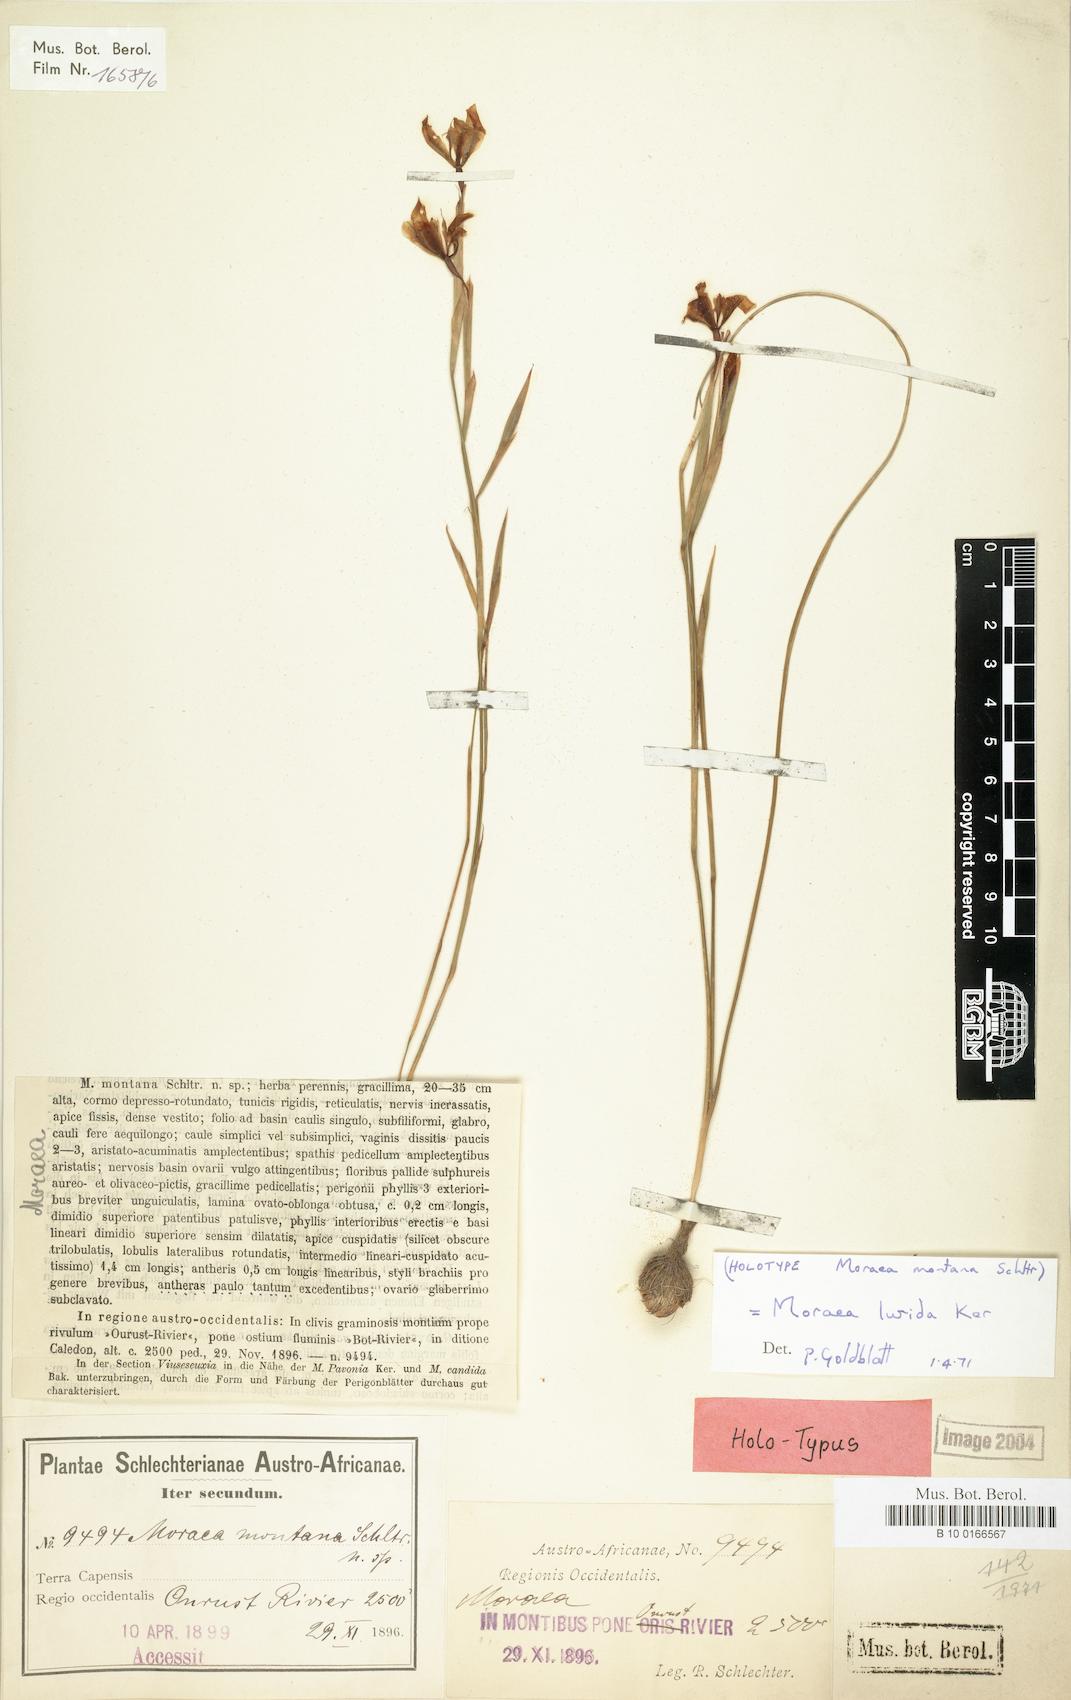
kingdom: Plantae
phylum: Tracheophyta
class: Liliopsida
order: Asparagales
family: Iridaceae
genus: Moraea
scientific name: Moraea lurida
